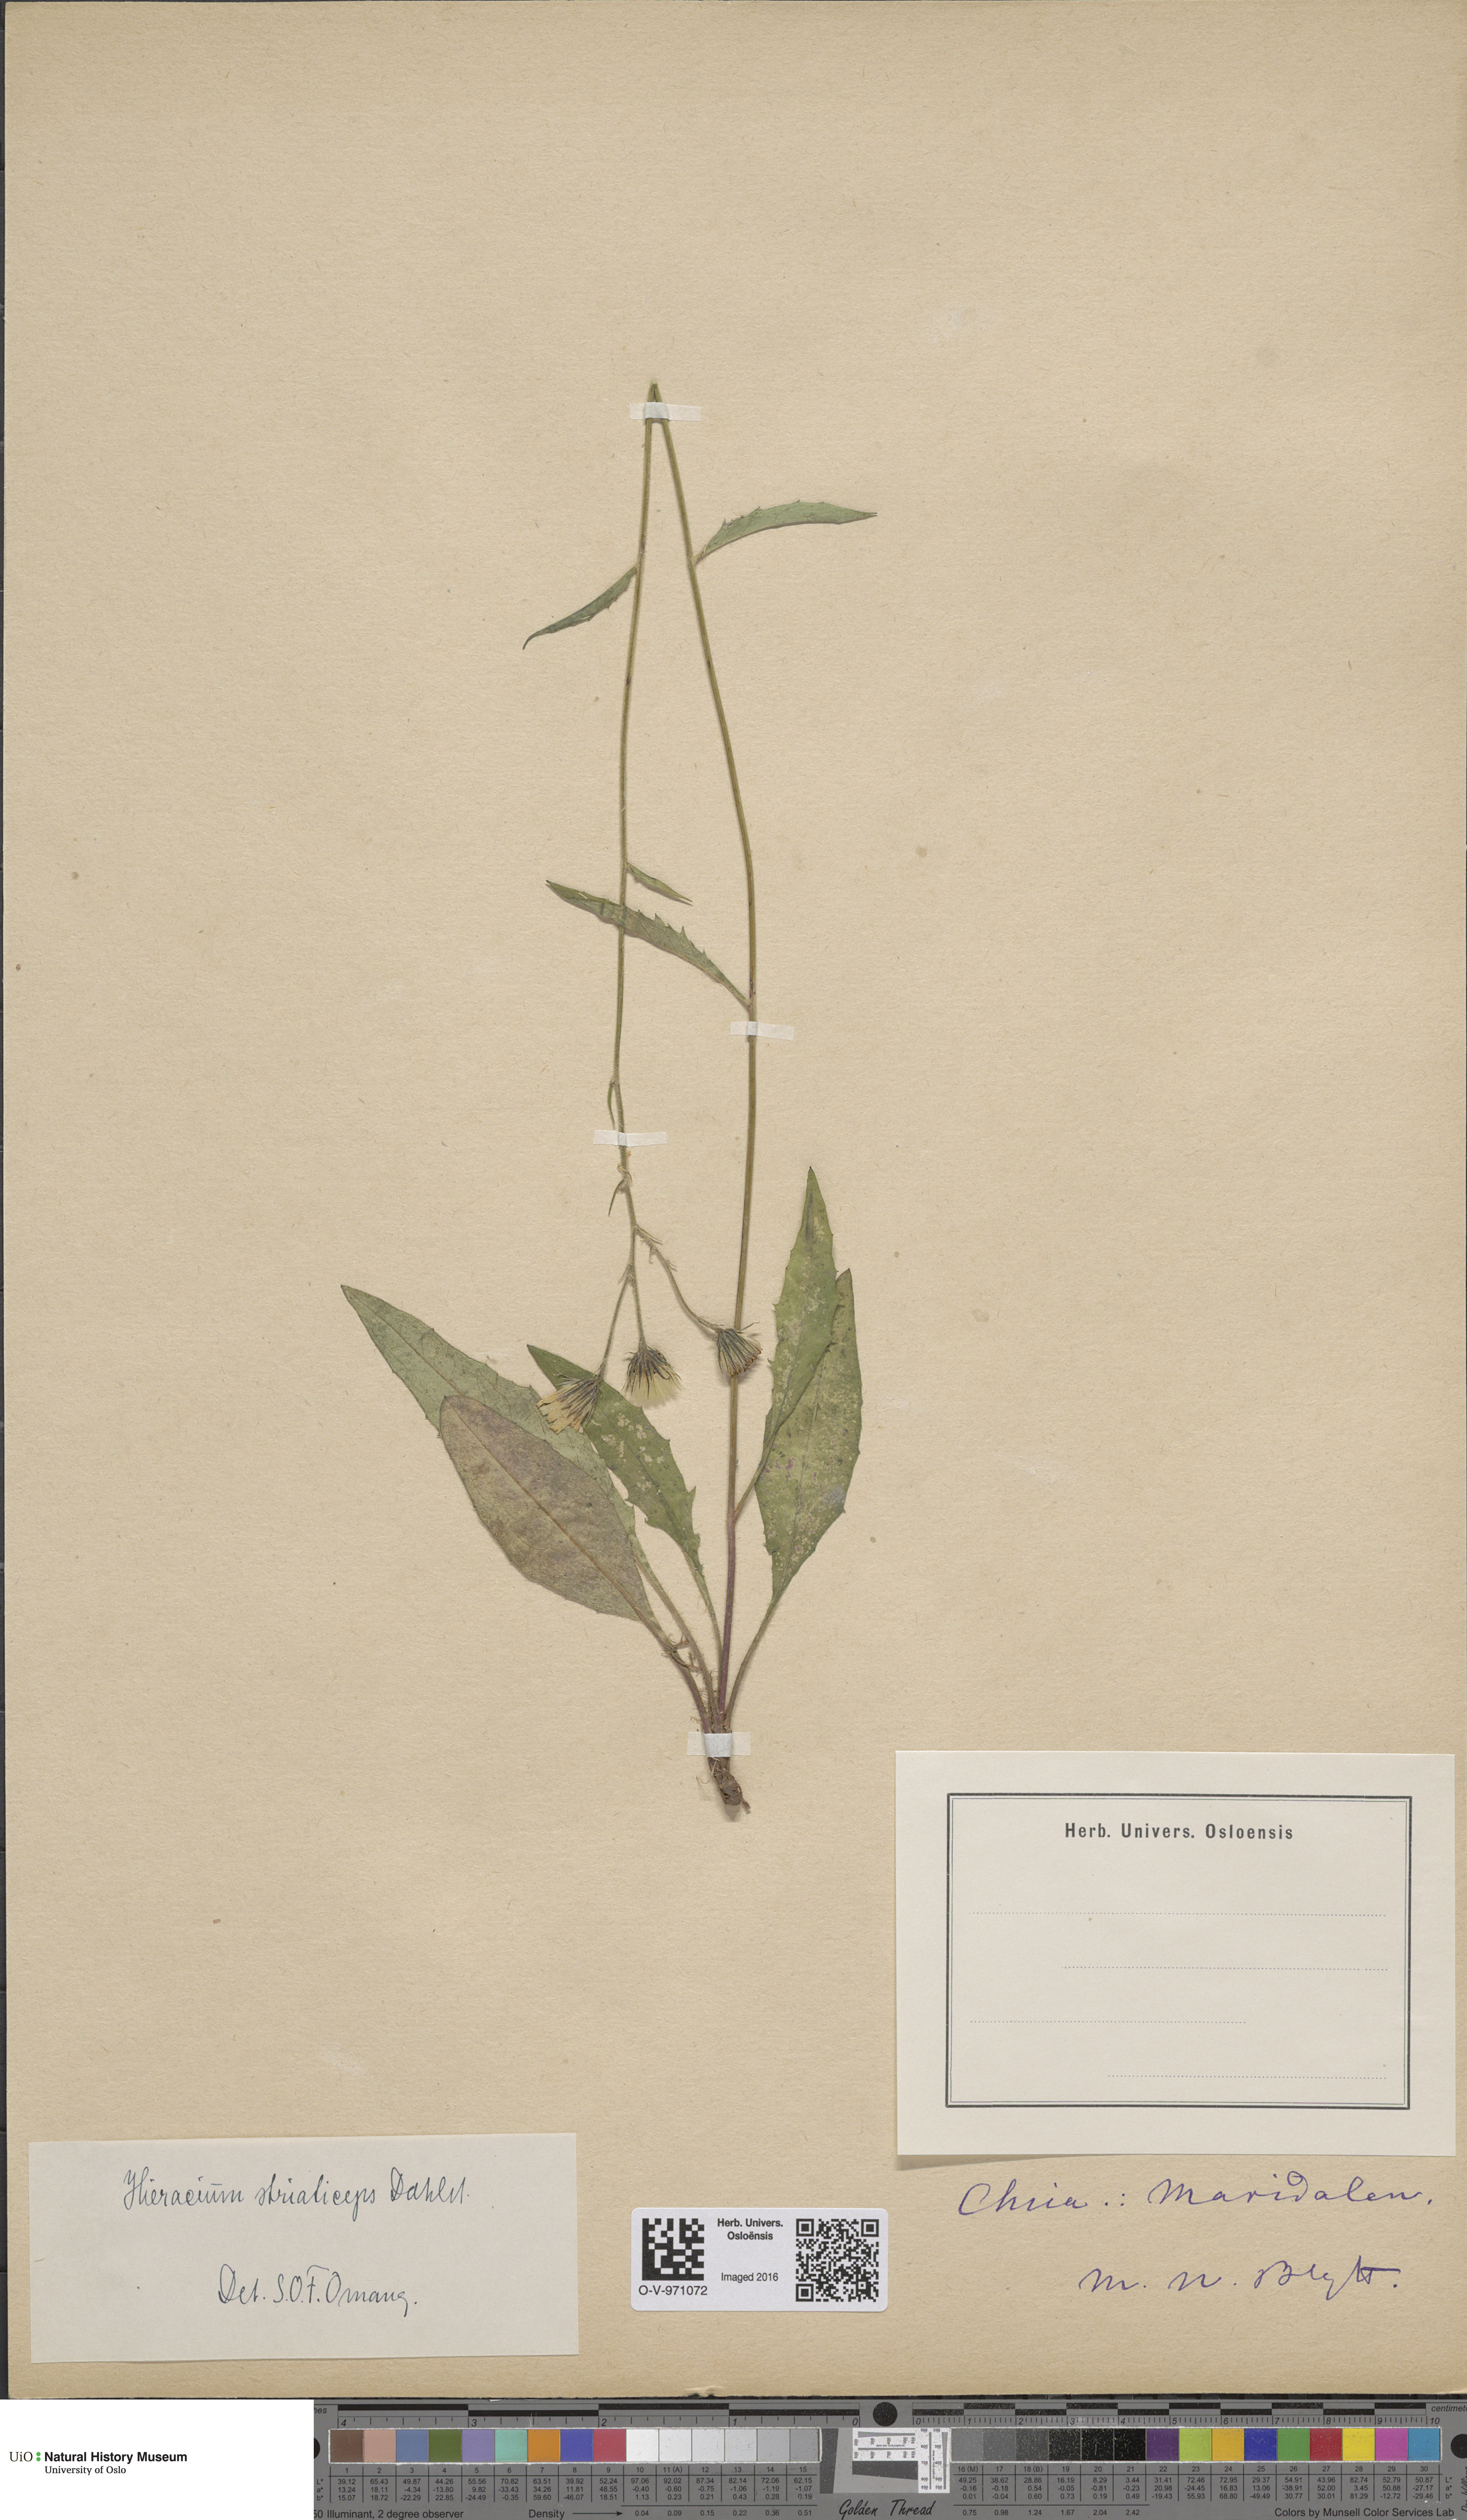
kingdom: Plantae
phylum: Tracheophyta
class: Magnoliopsida
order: Asterales
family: Asteraceae
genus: Hieracium
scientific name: Hieracium
